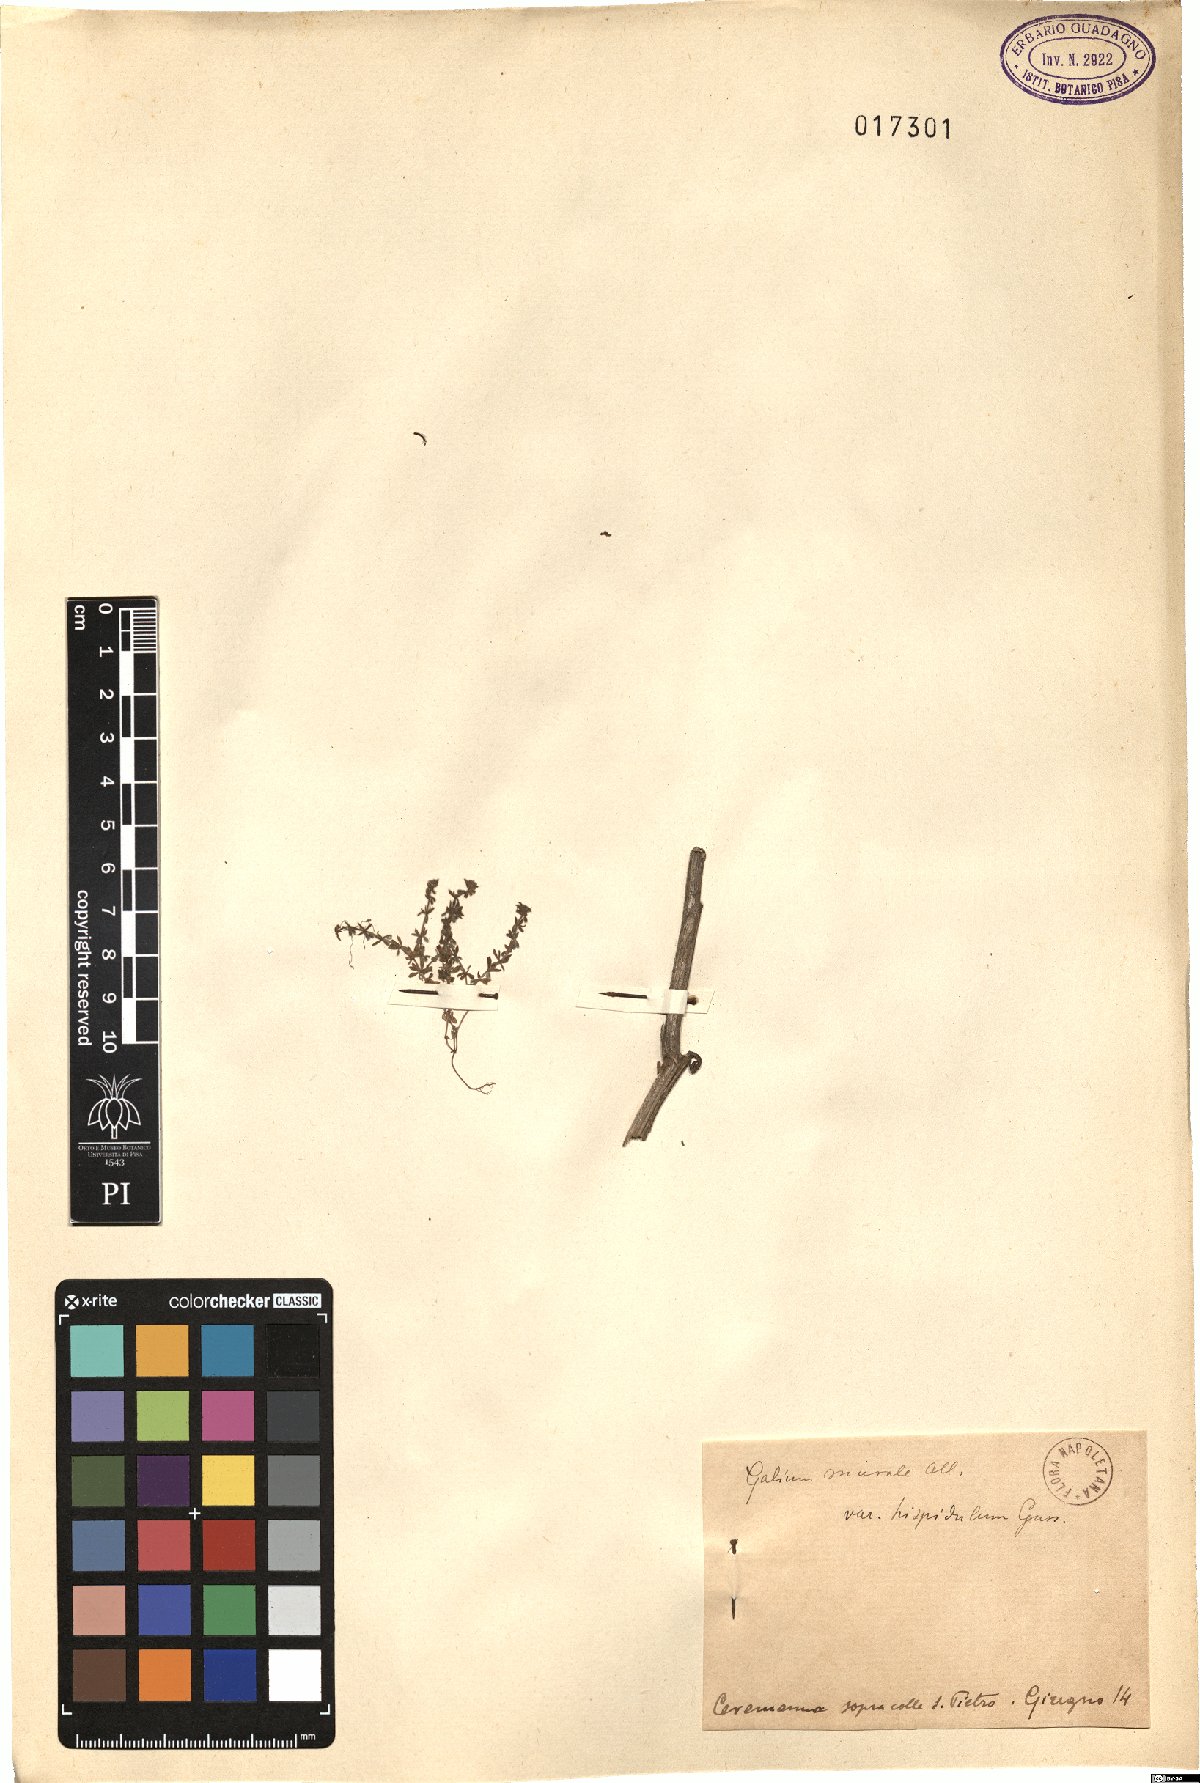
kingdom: Plantae
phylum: Tracheophyta
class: Magnoliopsida
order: Gentianales
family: Rubiaceae
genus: Galium
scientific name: Galium murale
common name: Yellow wall bedstraw
